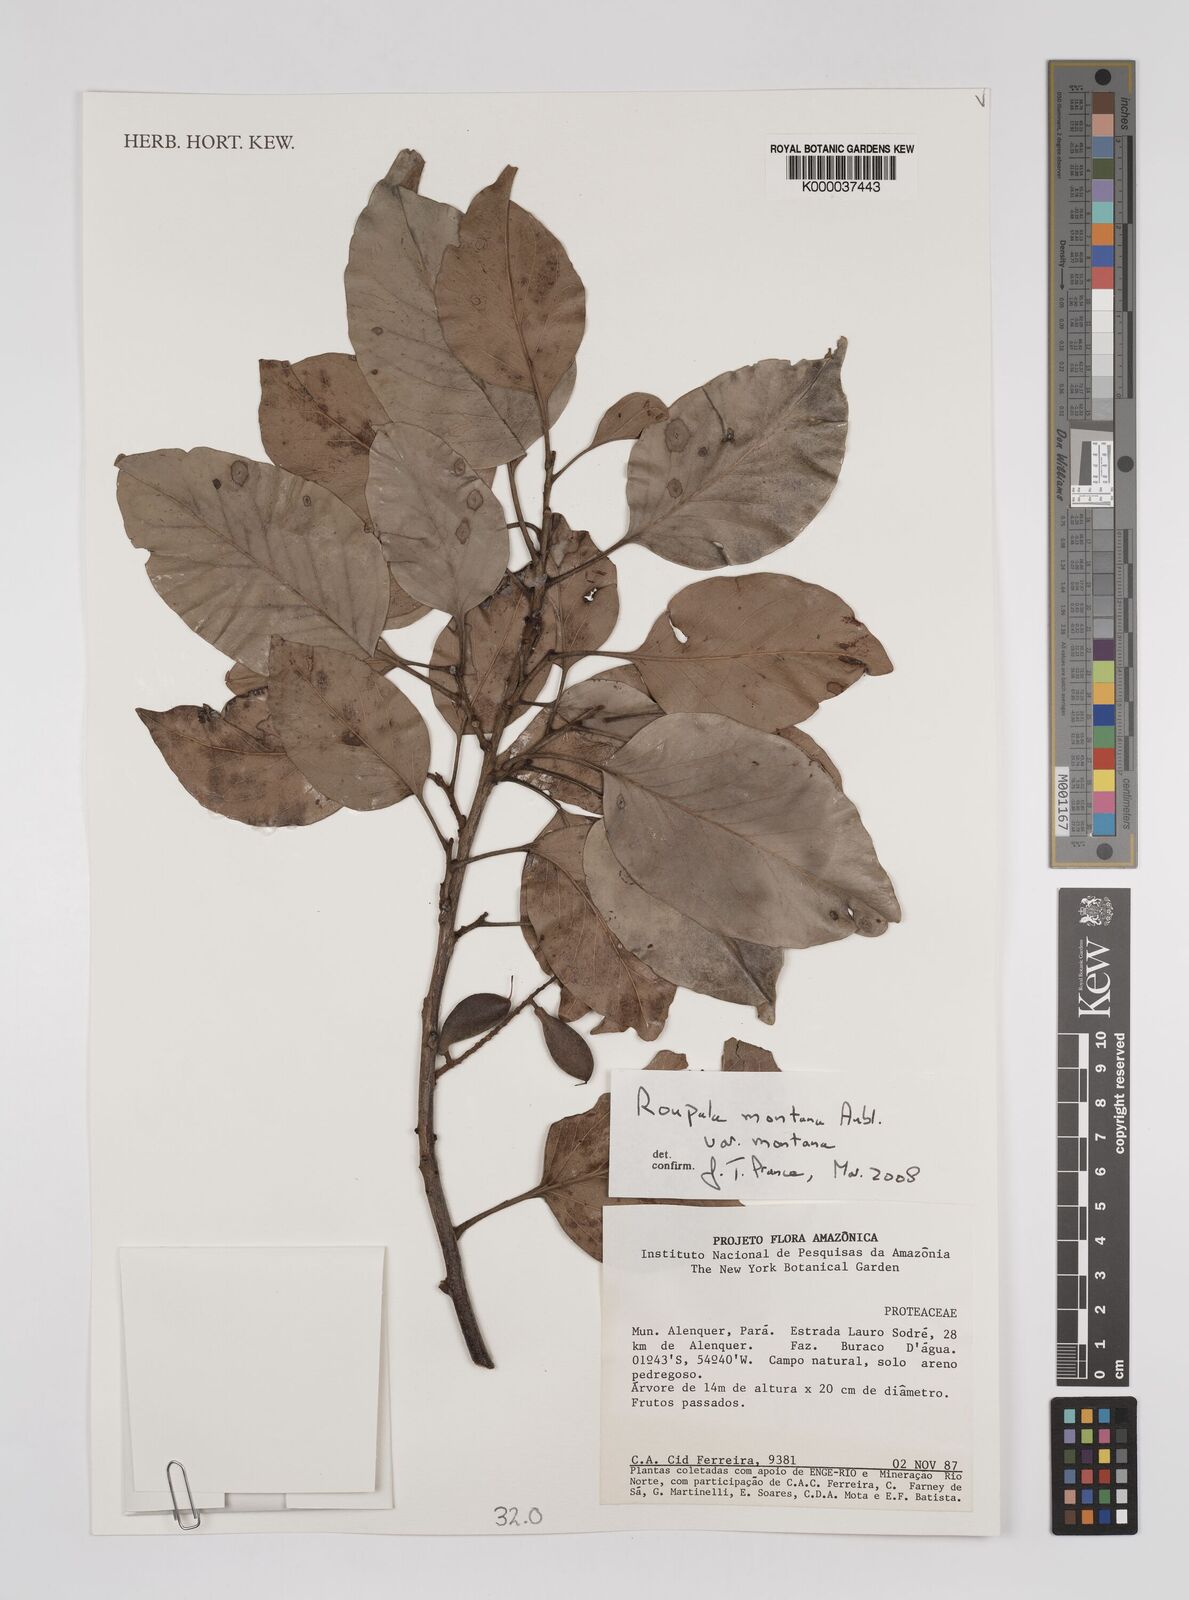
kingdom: Plantae
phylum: Tracheophyta
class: Magnoliopsida
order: Proteales
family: Proteaceae
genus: Roupala
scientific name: Roupala montana
